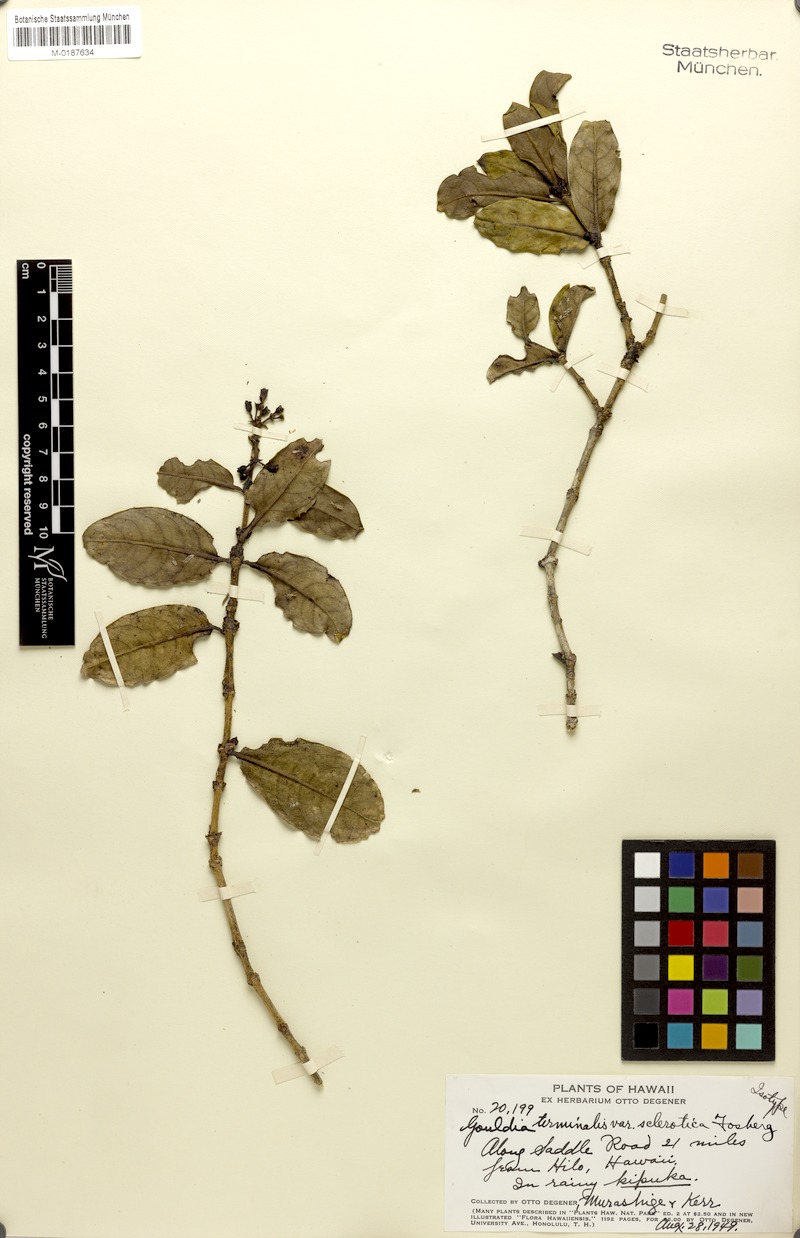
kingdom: Plantae
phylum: Tracheophyta
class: Magnoliopsida
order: Gentianales
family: Rubiaceae
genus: Kadua
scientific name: Kadua affinis
